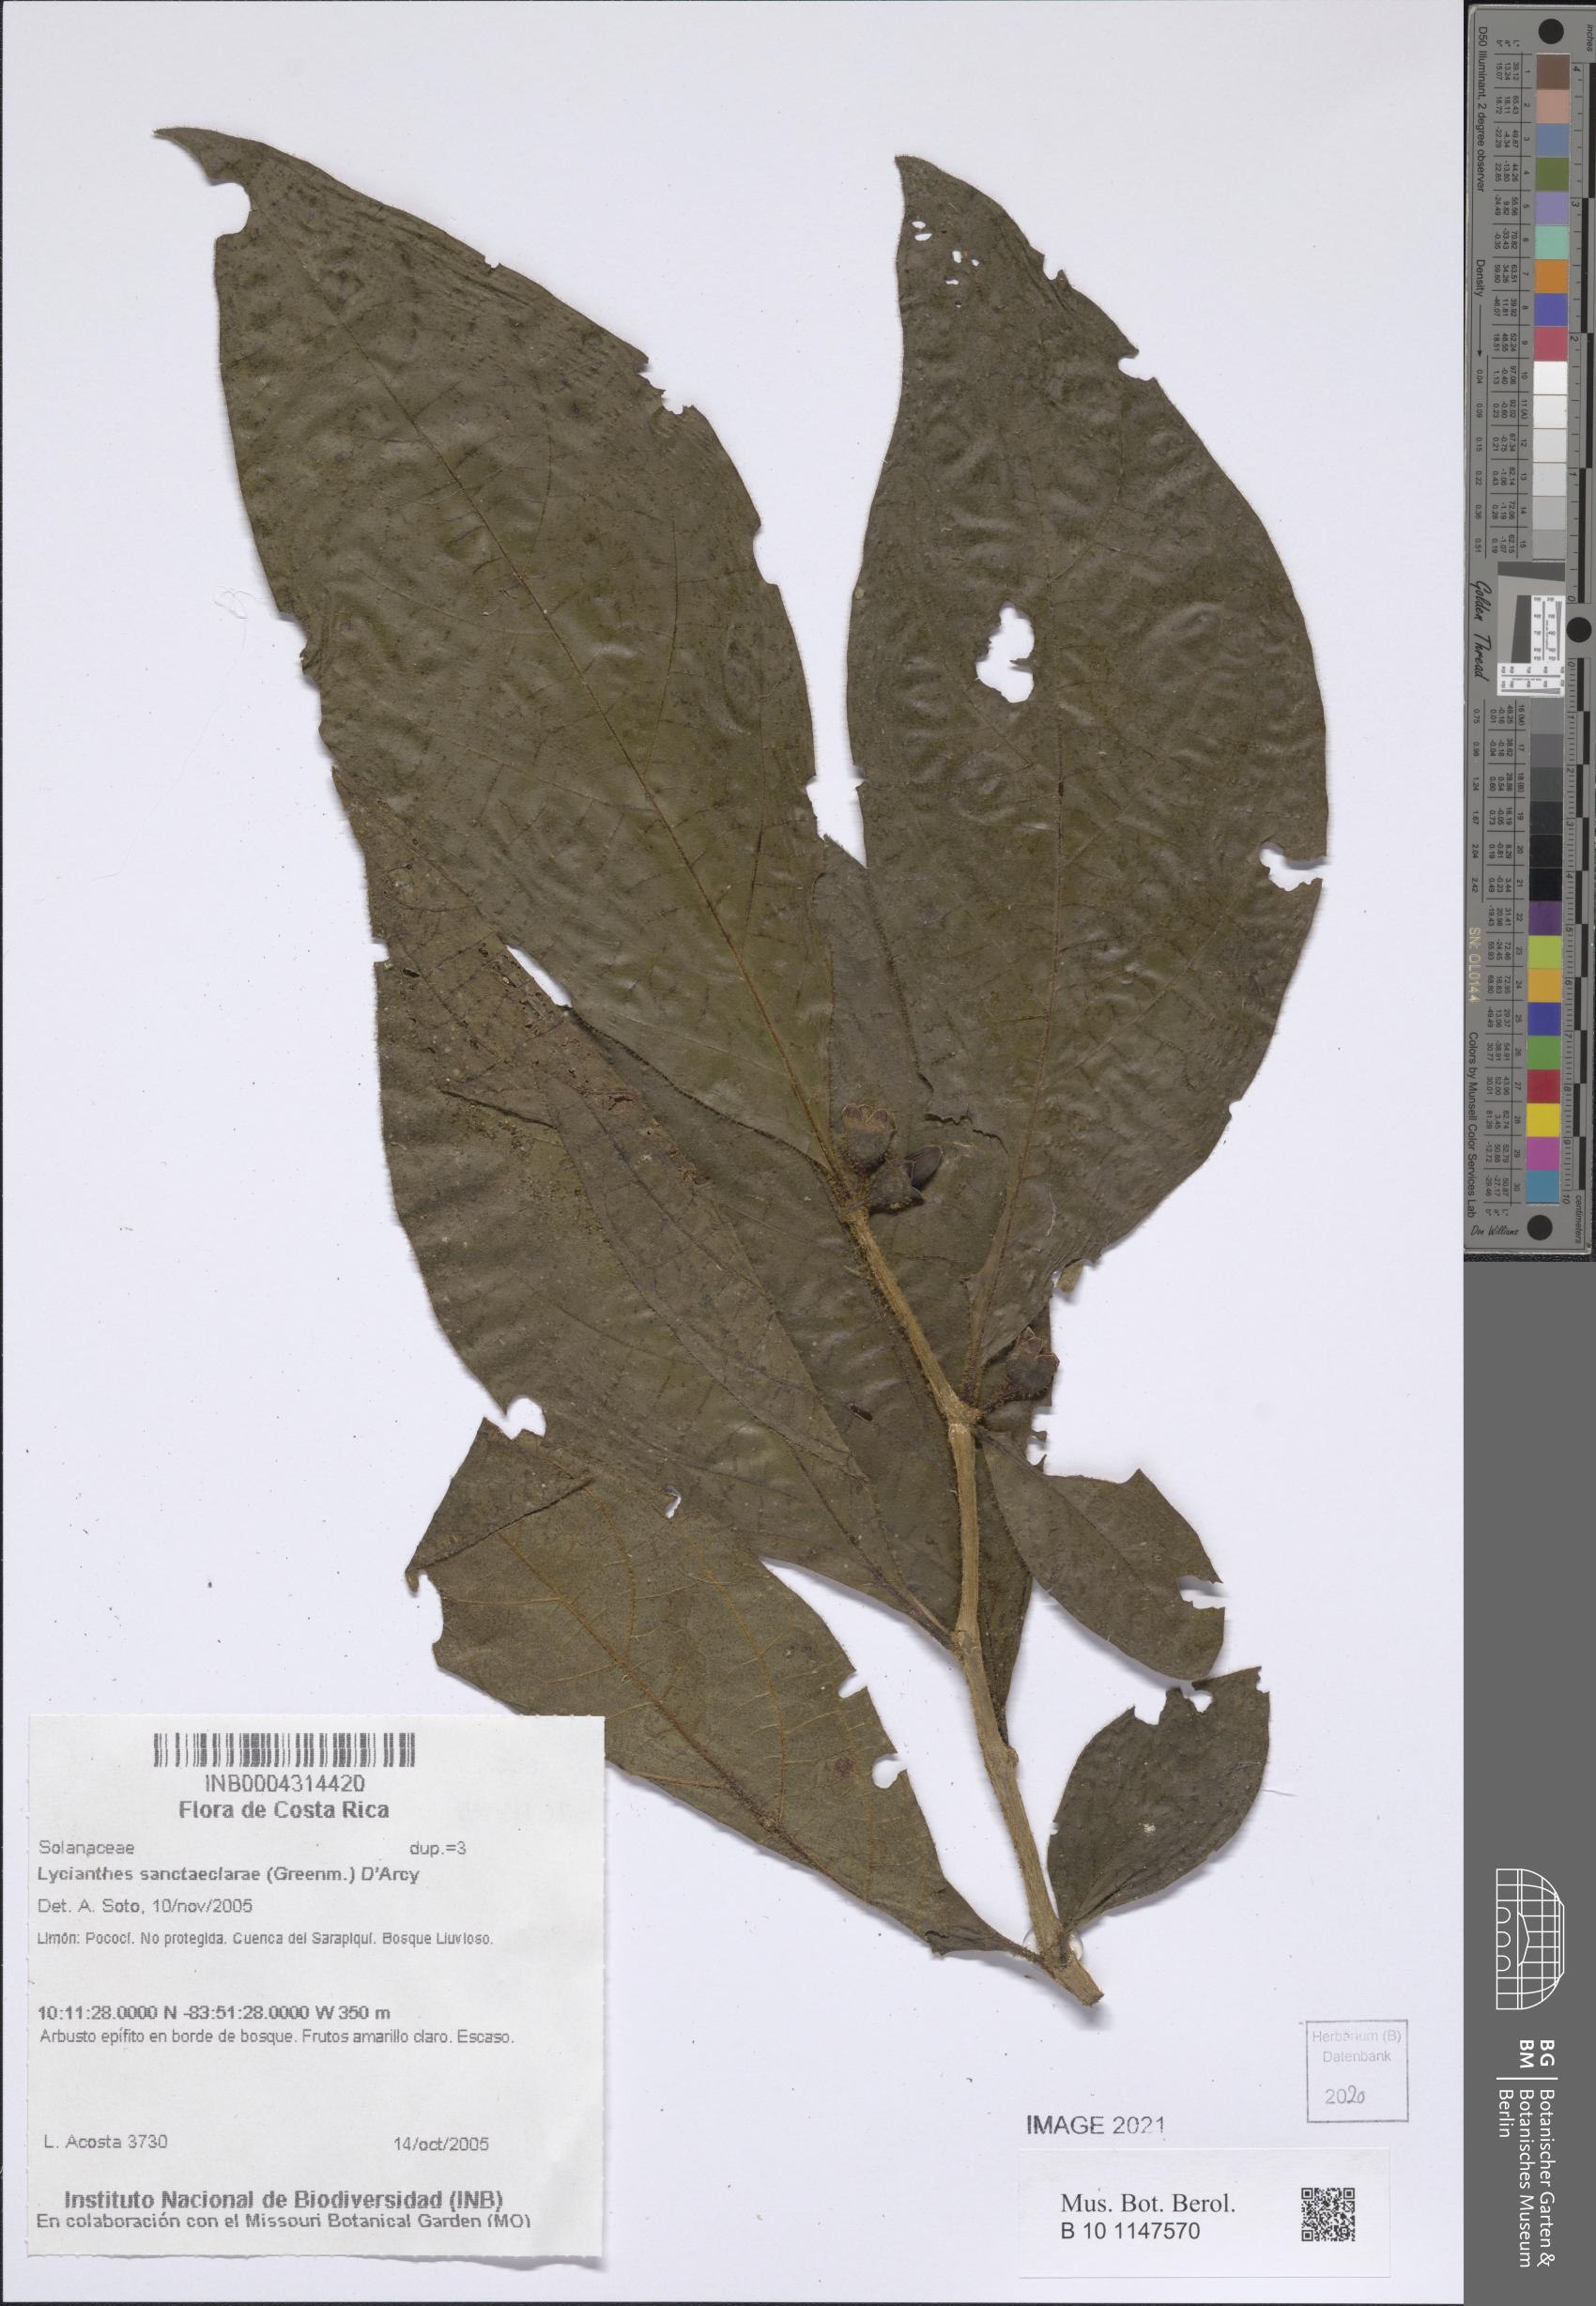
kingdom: Plantae
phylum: Tracheophyta
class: Magnoliopsida
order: Solanales
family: Solanaceae
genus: Lycianthes
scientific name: Lycianthes sanctaeclarae
